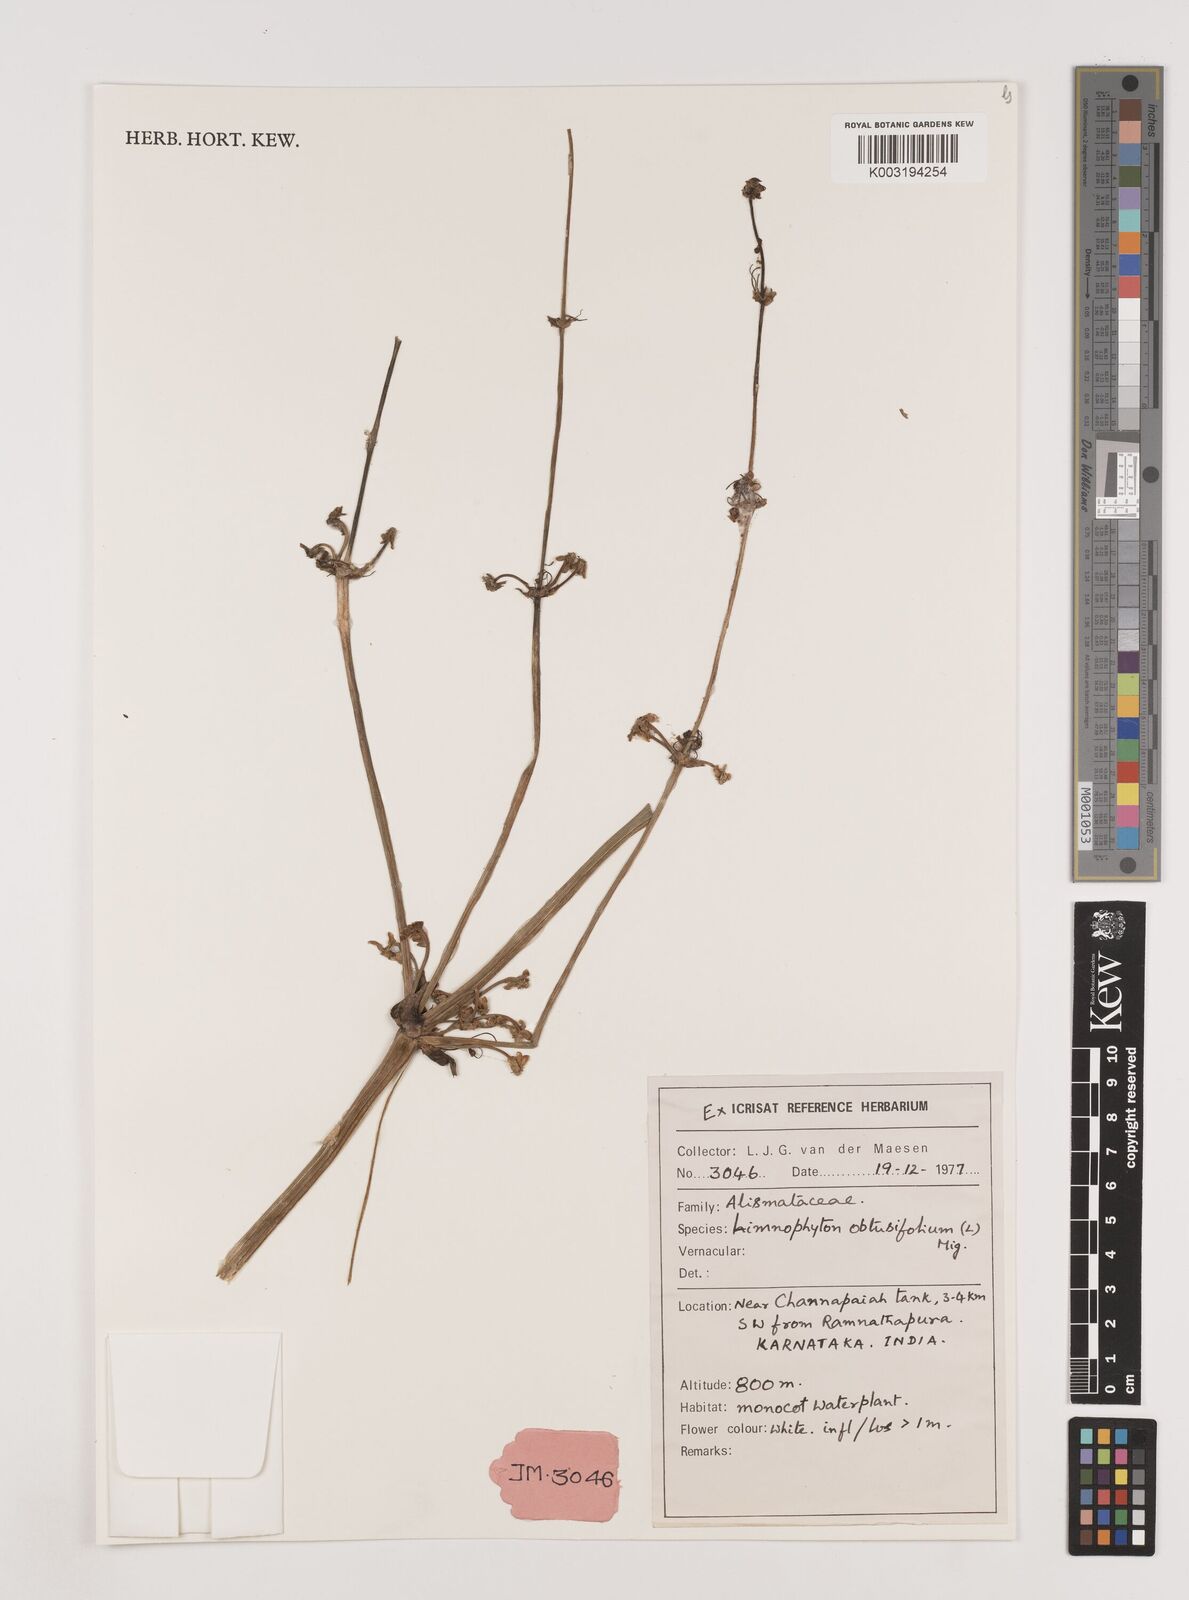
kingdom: Plantae
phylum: Tracheophyta
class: Liliopsida
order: Alismatales
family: Alismataceae
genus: Limnophyton
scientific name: Limnophyton obtusifolium
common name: Arrow head
